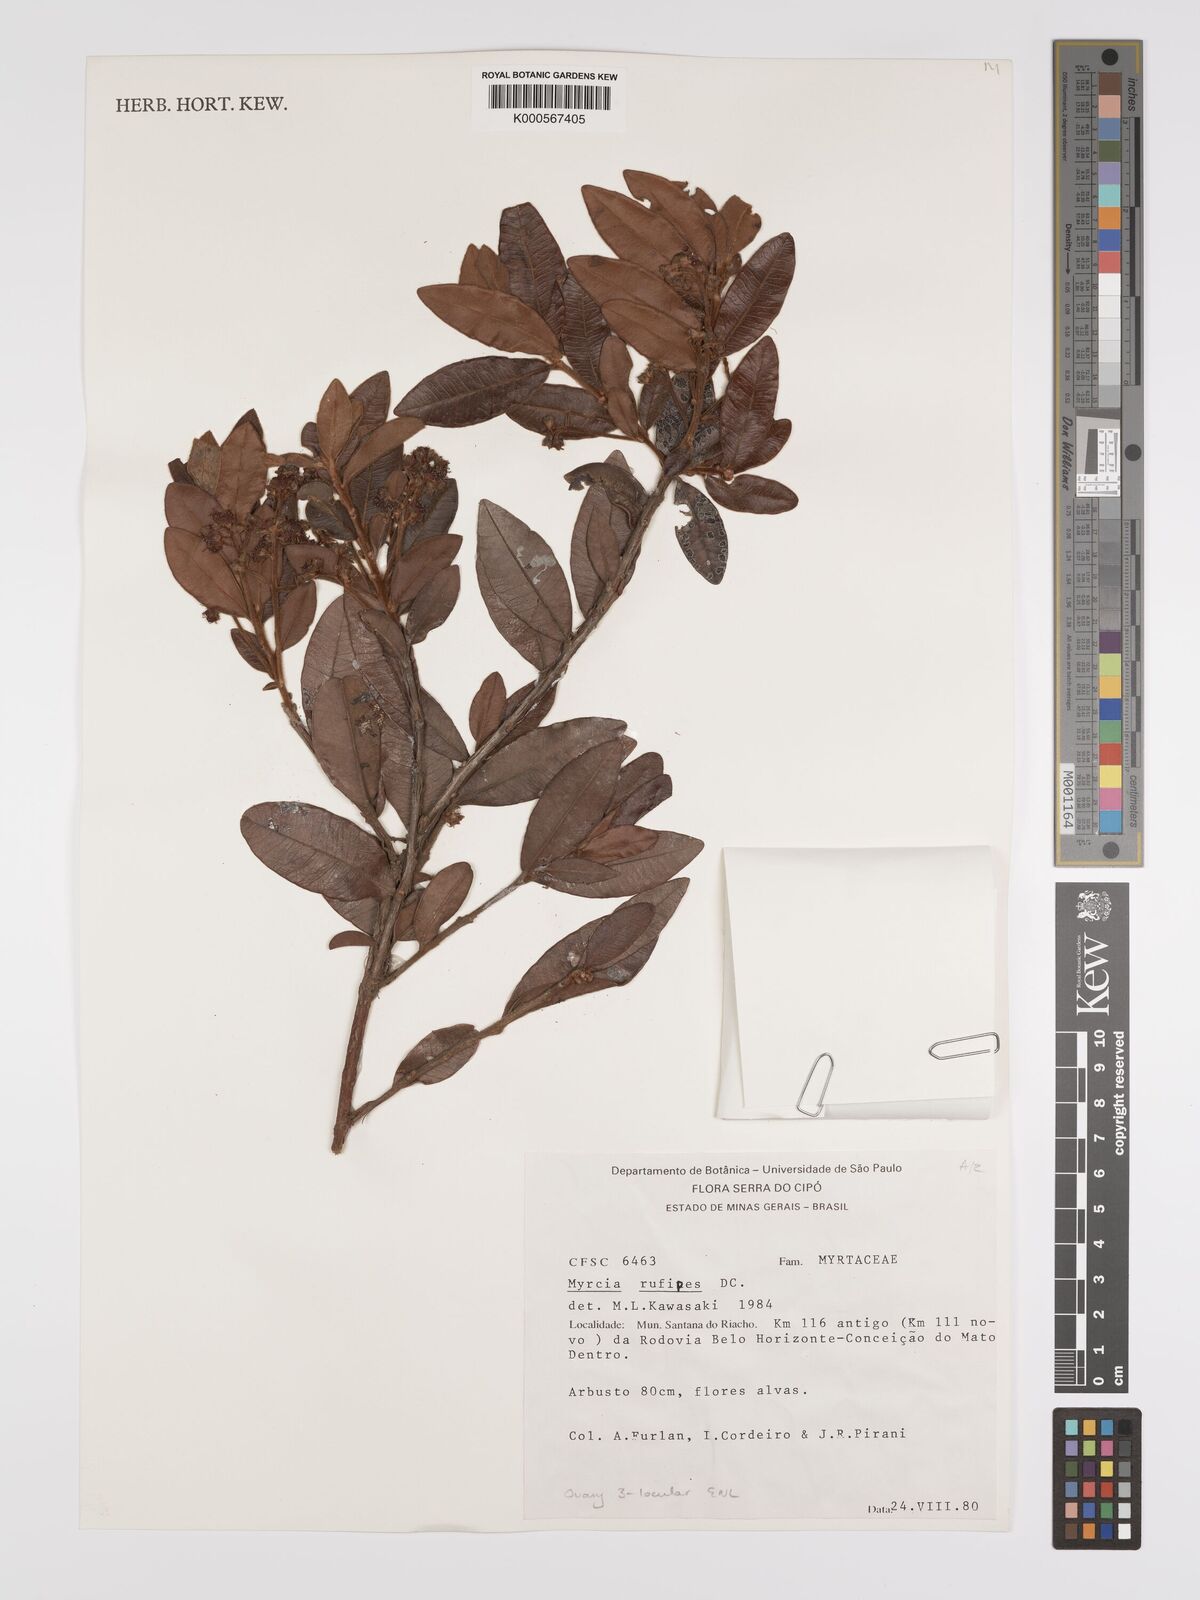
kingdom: Plantae
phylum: Tracheophyta
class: Magnoliopsida
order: Myrtales
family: Myrtaceae
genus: Myrcia
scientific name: Myrcia rufipes
